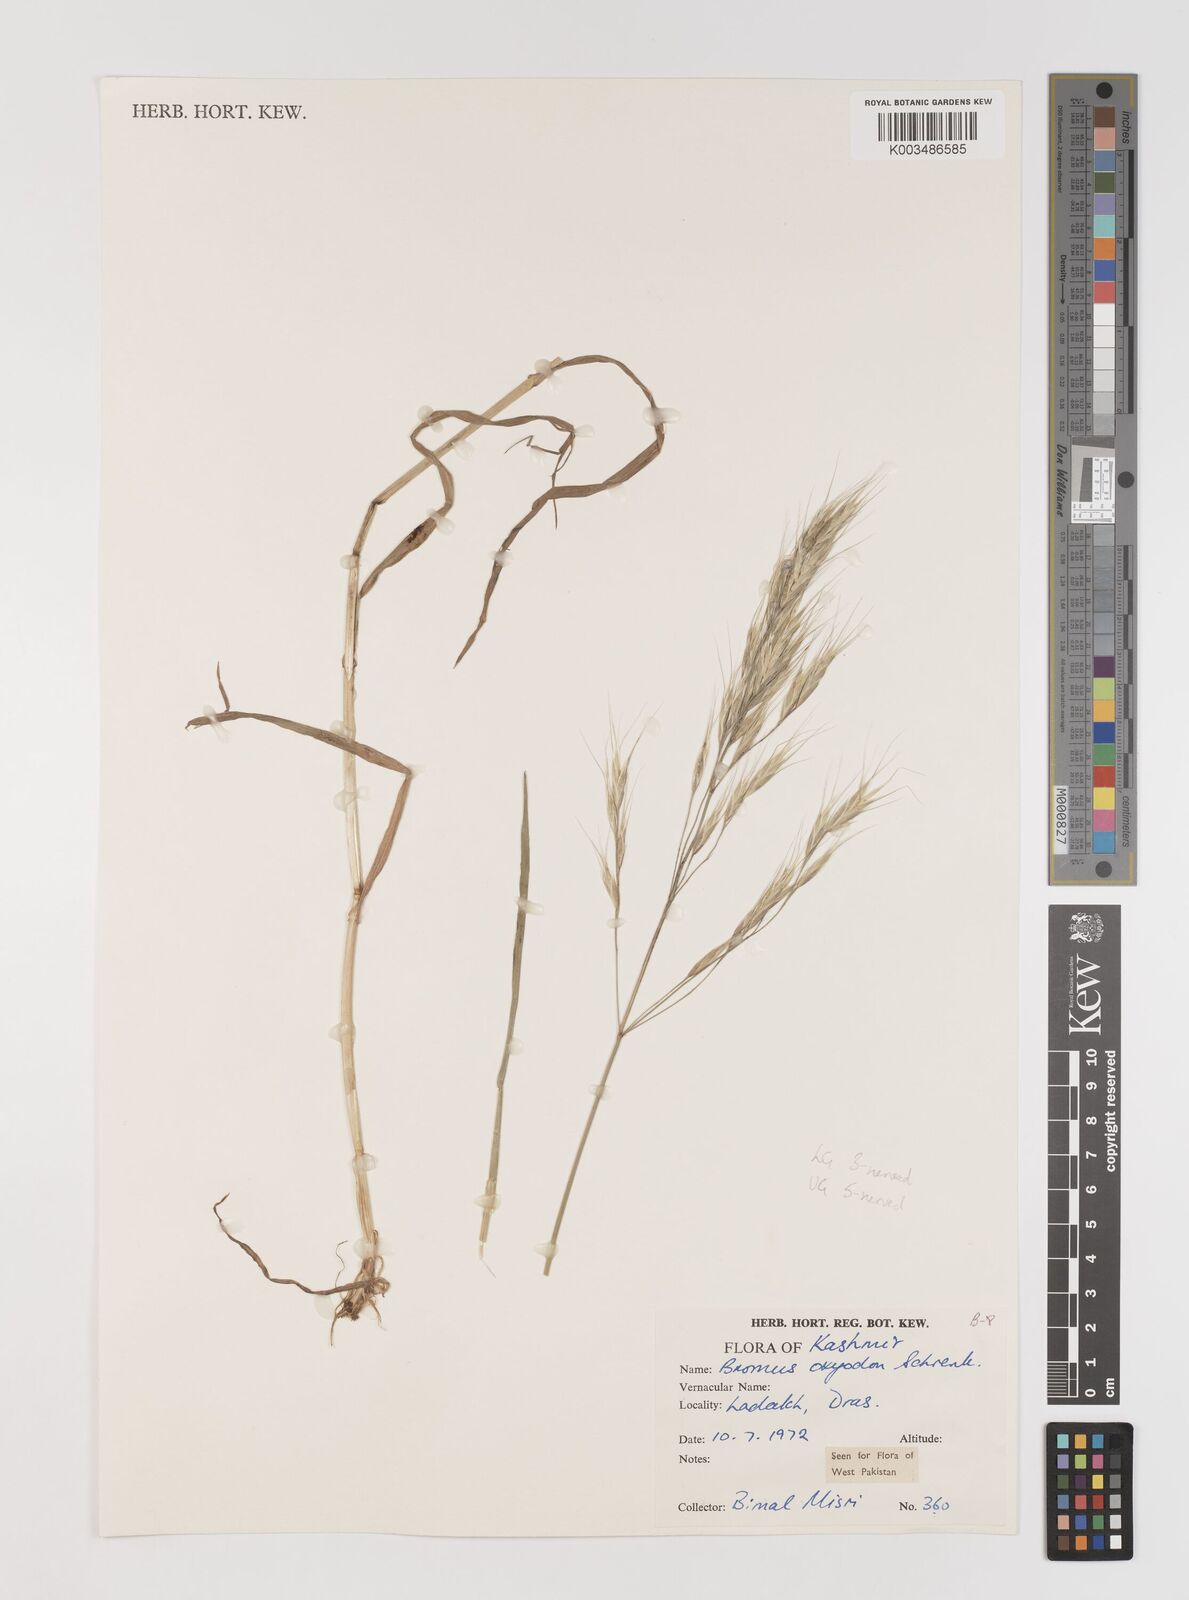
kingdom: Plantae
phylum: Tracheophyta
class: Liliopsida
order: Poales
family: Poaceae
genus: Bromus
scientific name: Bromus oxyodon
